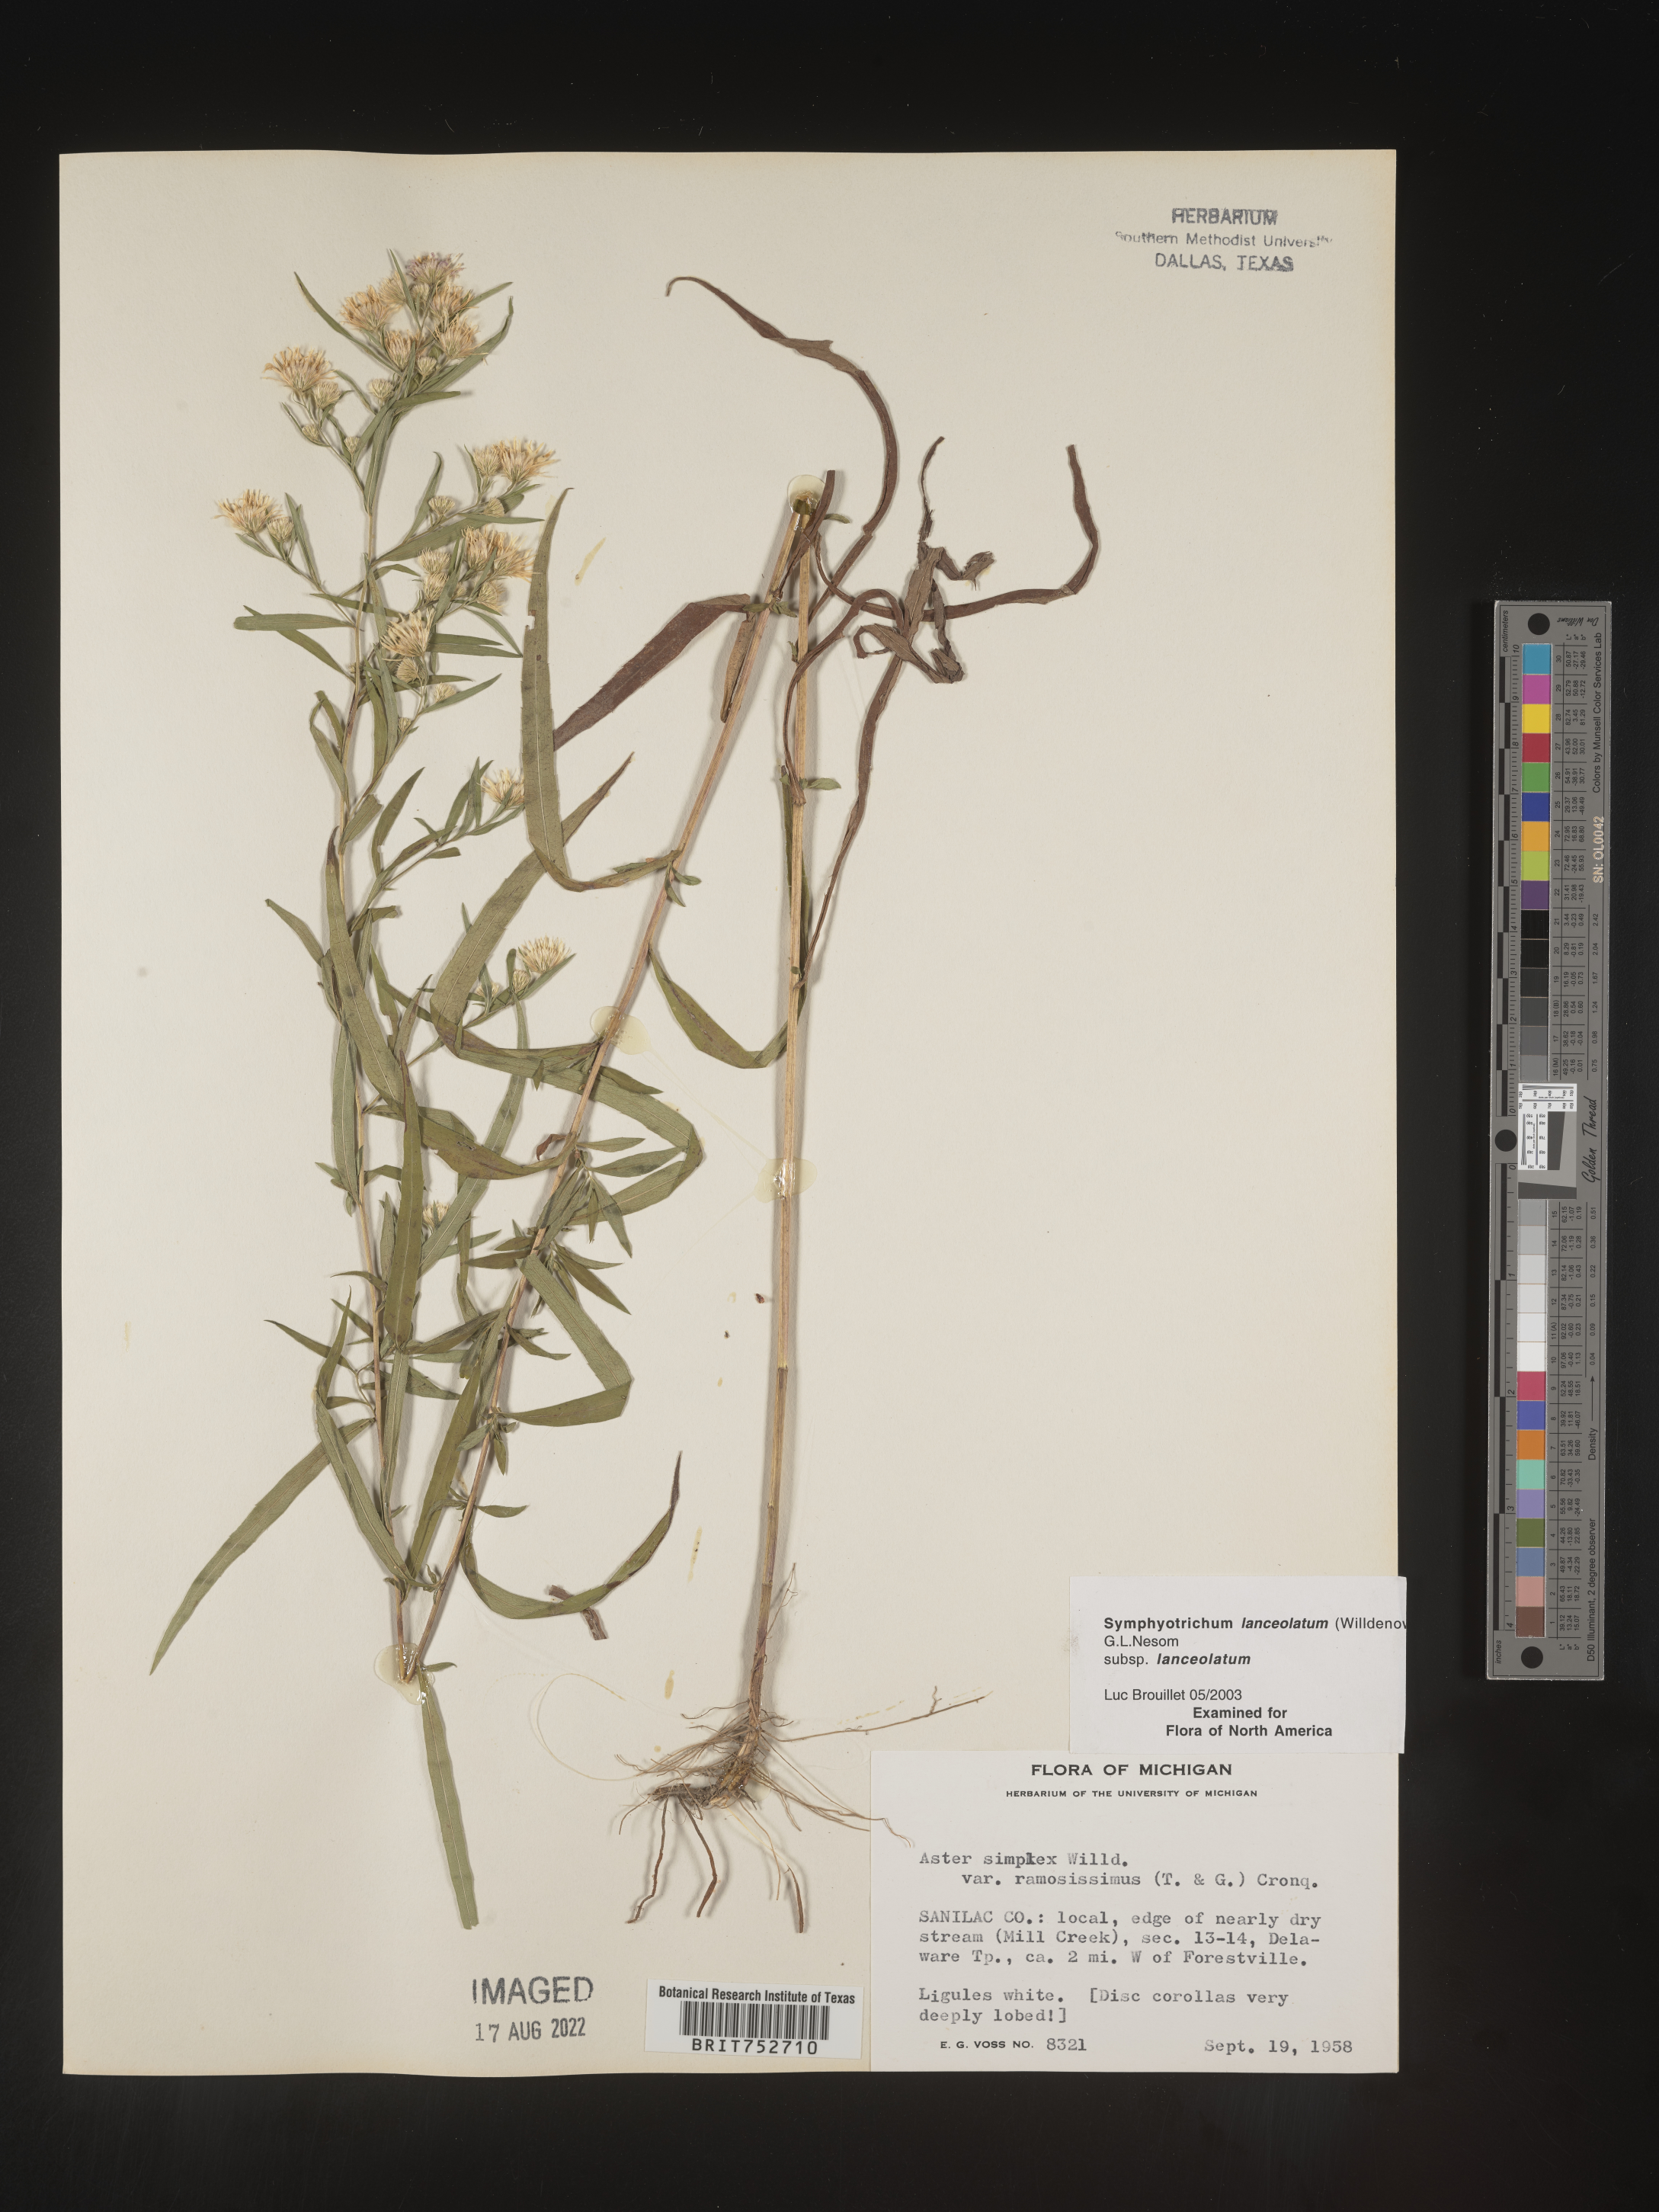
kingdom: Plantae
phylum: Tracheophyta
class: Magnoliopsida
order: Asterales
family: Asteraceae
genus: Symphyotrichum
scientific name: Symphyotrichum lanceolatum
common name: Panicled aster
